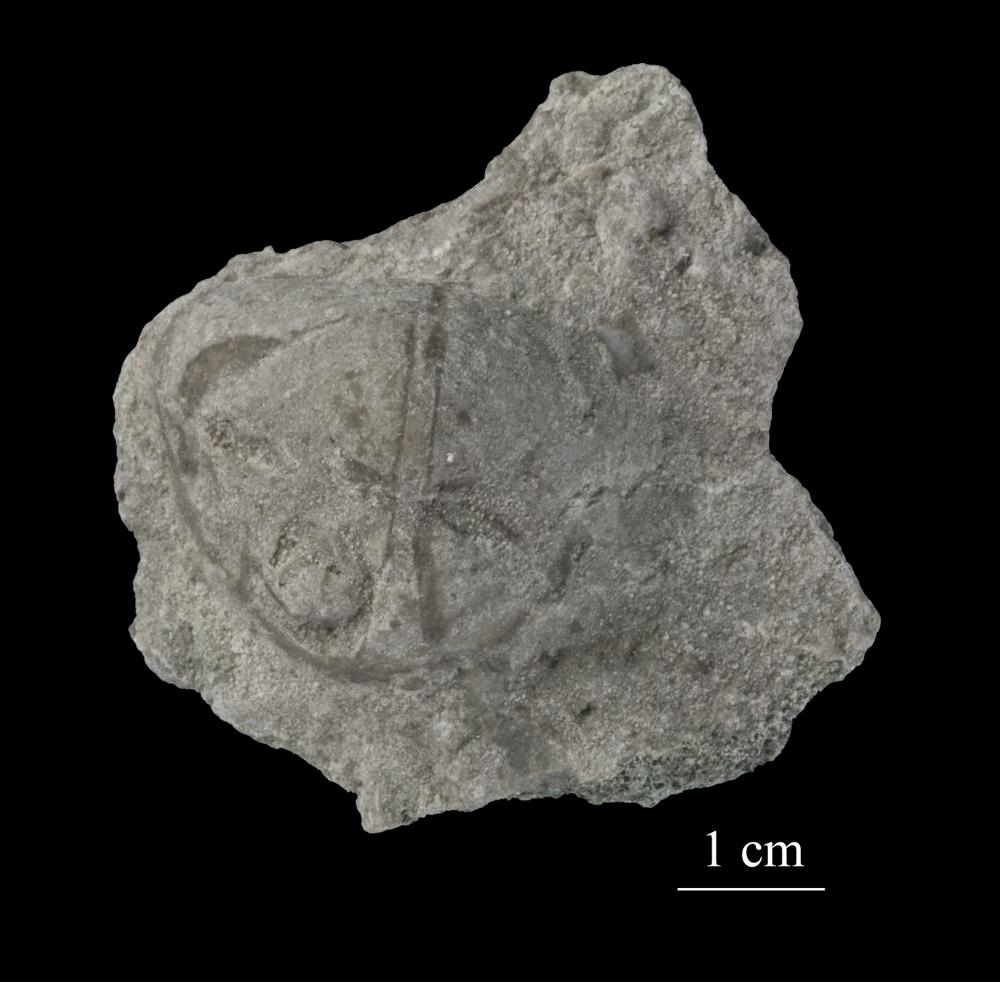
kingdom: Animalia
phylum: Mollusca
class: Gastropoda
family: Lophospiridae
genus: Ruedemannia
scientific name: Ruedemannia Worthenia borkholmiensis
